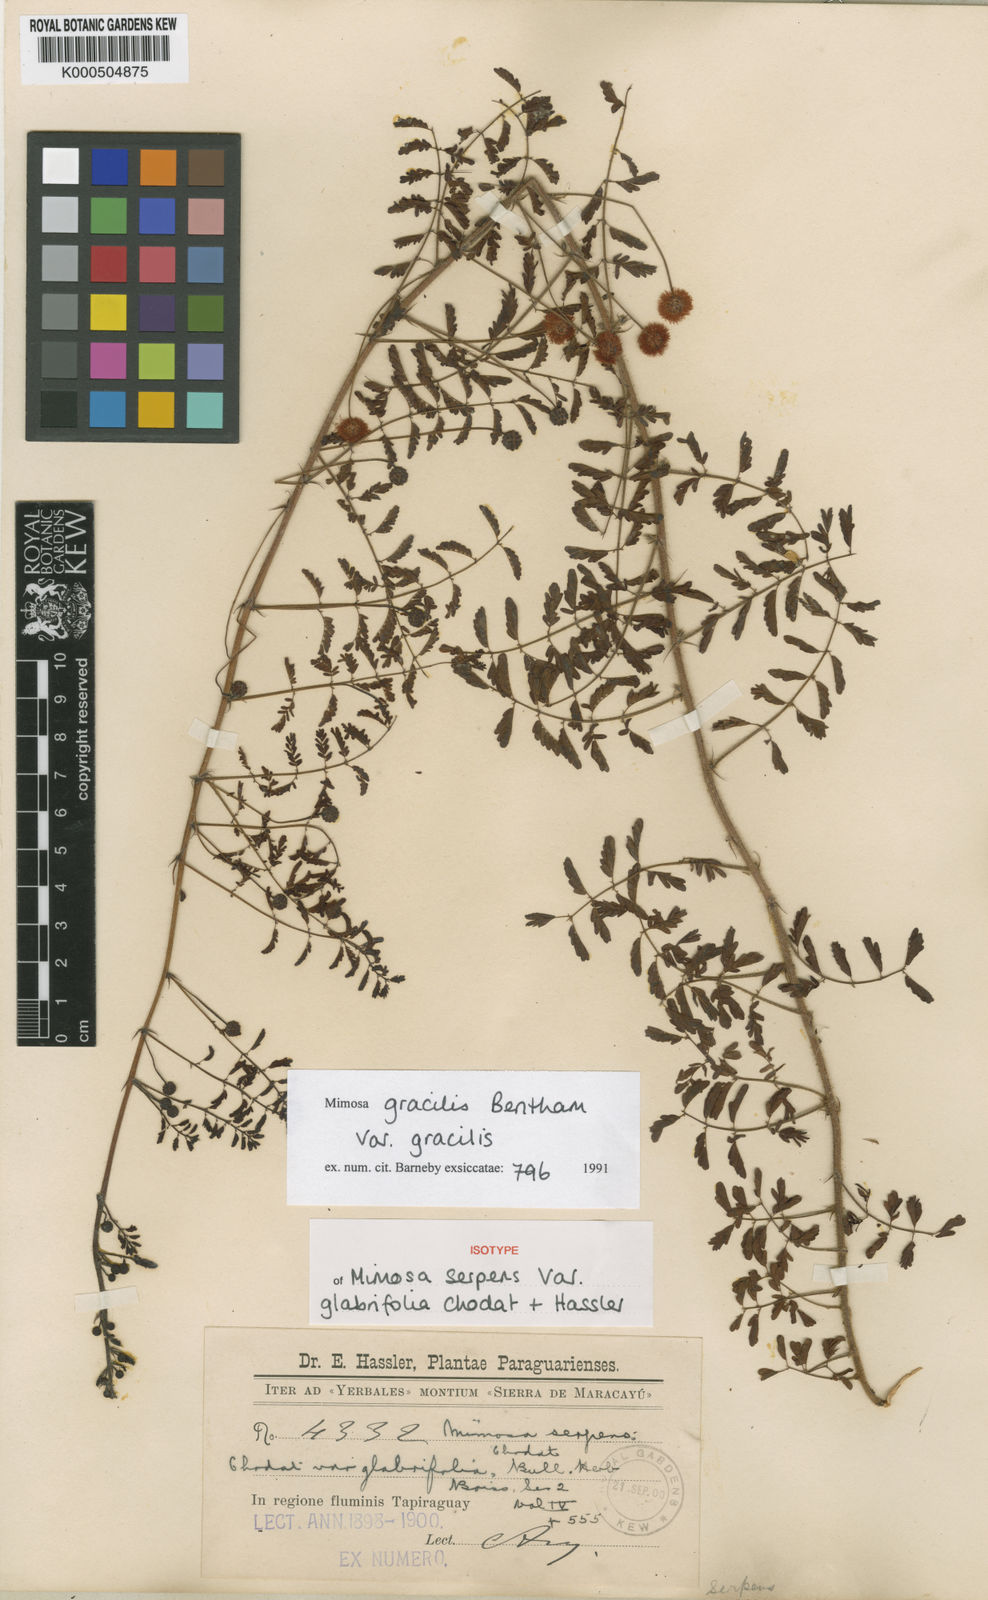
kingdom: Plantae
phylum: Tracheophyta
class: Magnoliopsida
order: Fabales
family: Fabaceae
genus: Mimosa
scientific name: Mimosa gracilis
